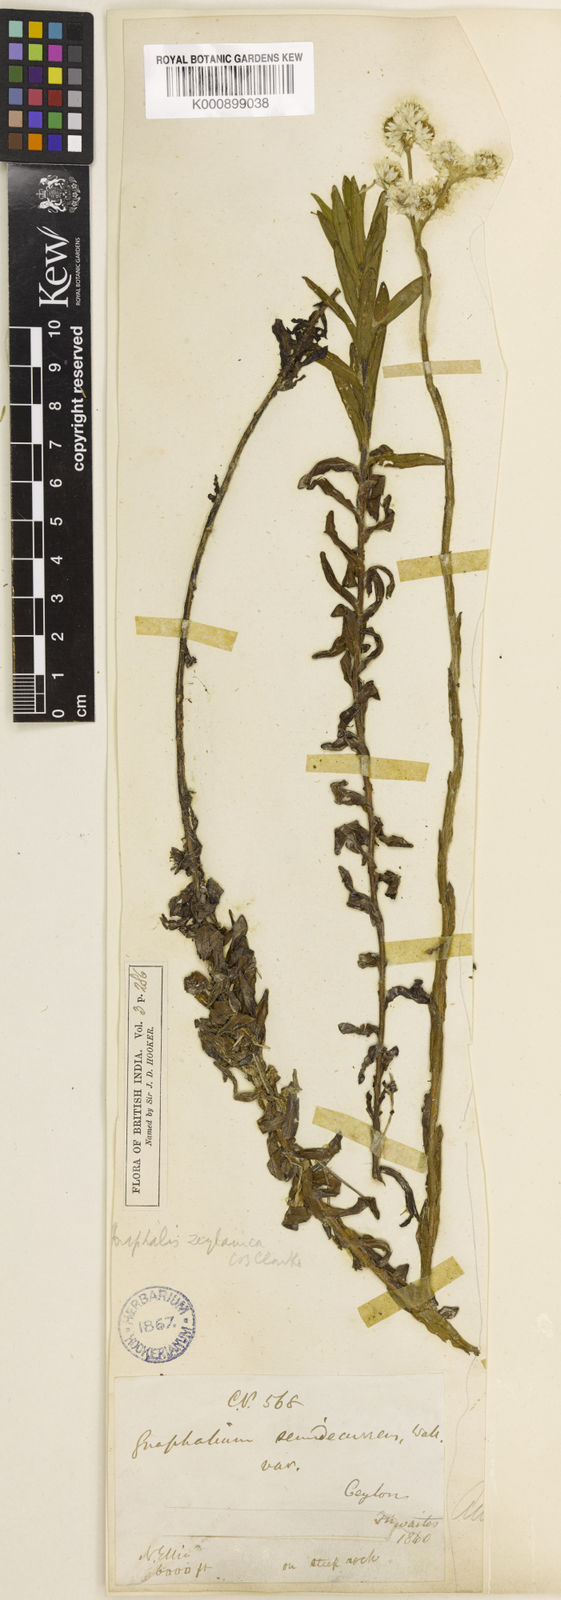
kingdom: Plantae
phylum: Tracheophyta
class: Magnoliopsida
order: Asterales
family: Asteraceae
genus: Anaphalis
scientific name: Anaphalis zeylanica
